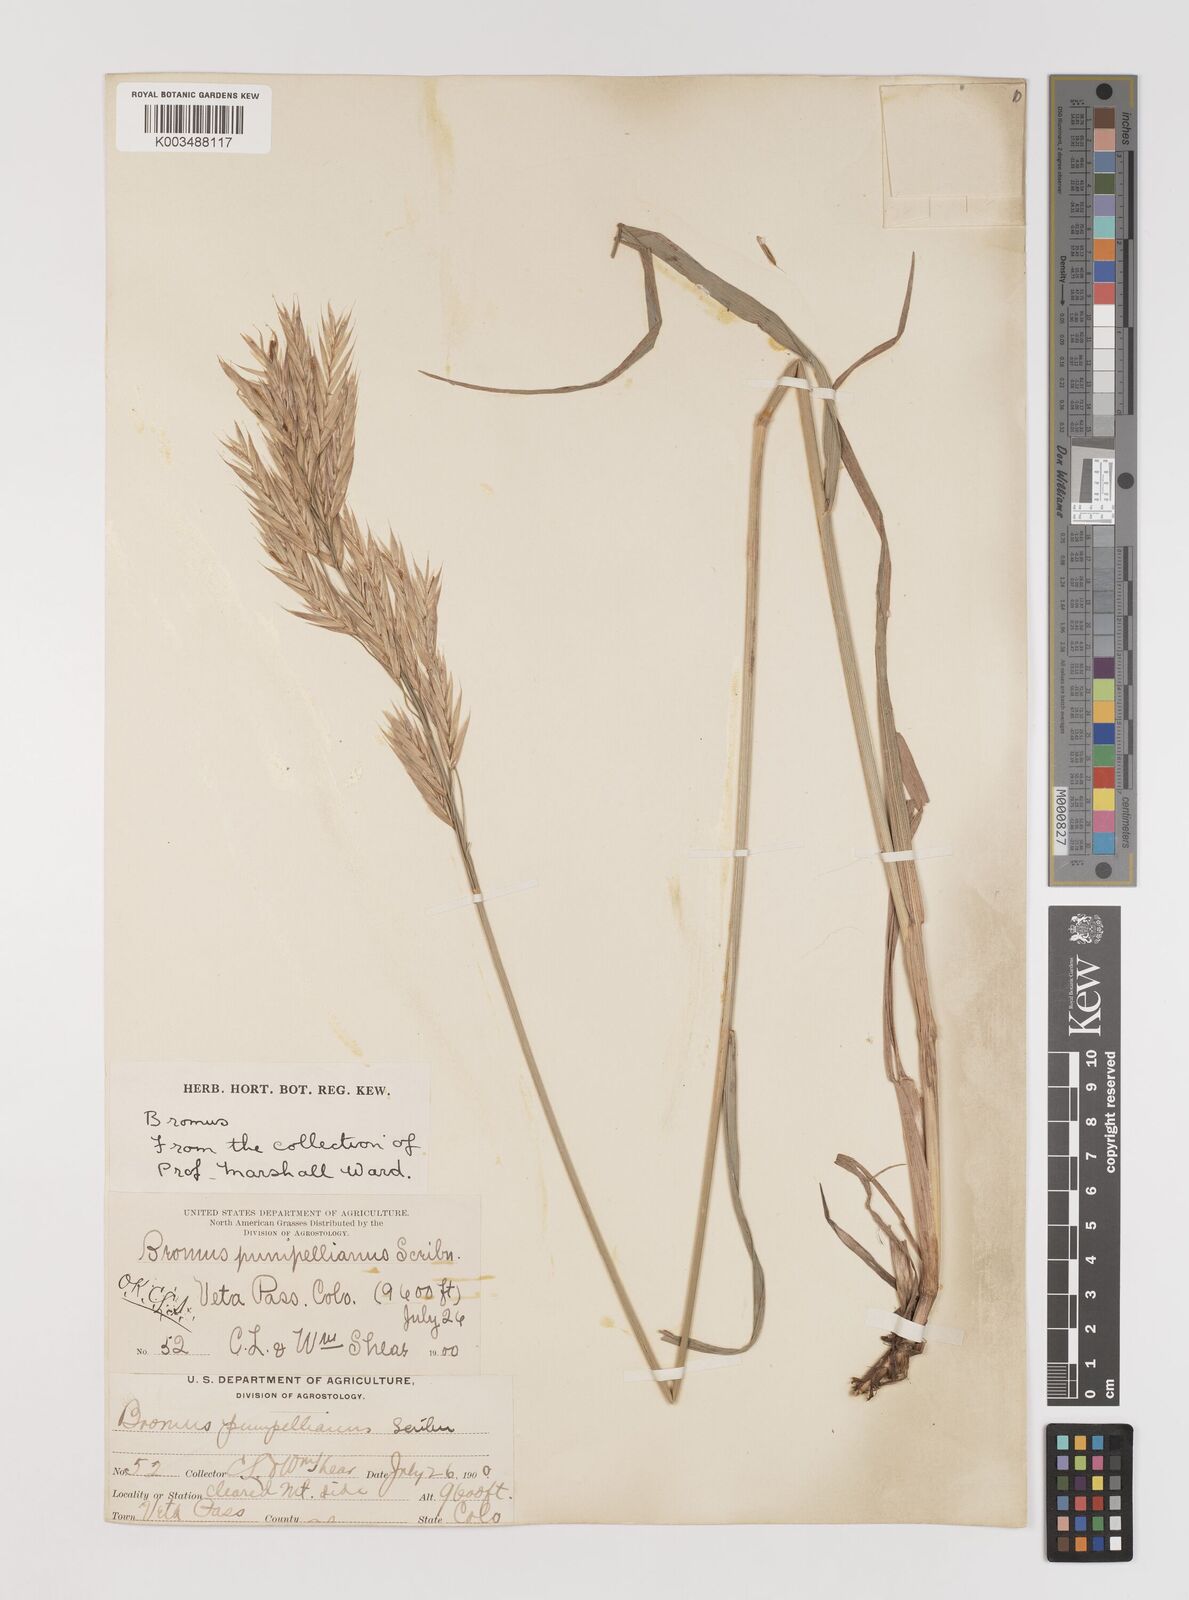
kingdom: Plantae
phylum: Tracheophyta
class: Liliopsida
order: Poales
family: Poaceae
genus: Bromus
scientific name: Bromus pumpellianus
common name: Pumpelly's brome
